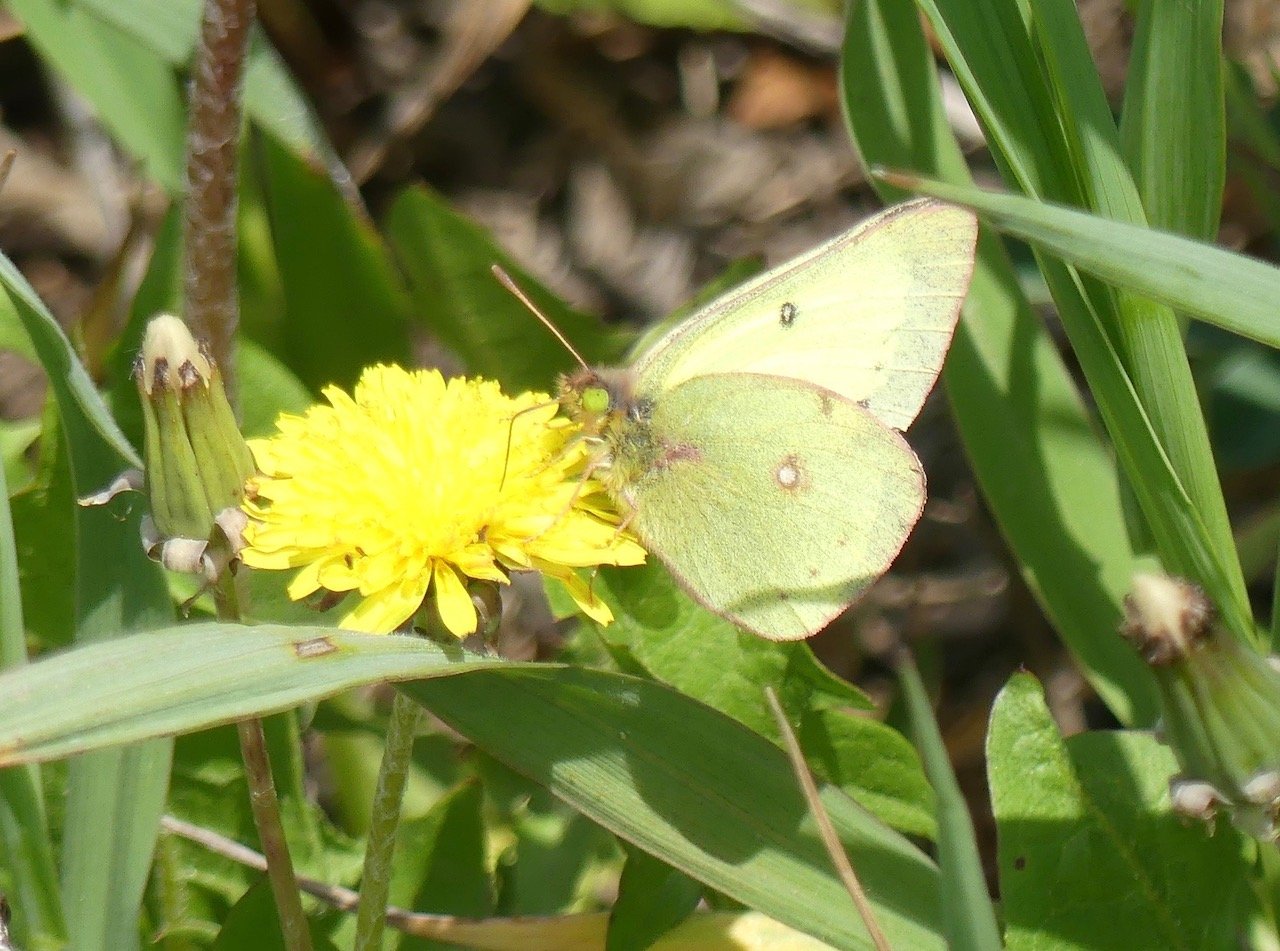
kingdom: Animalia
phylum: Arthropoda
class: Insecta
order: Lepidoptera
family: Pieridae
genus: Colias
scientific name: Colias philodice
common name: Clouded Sulphur
